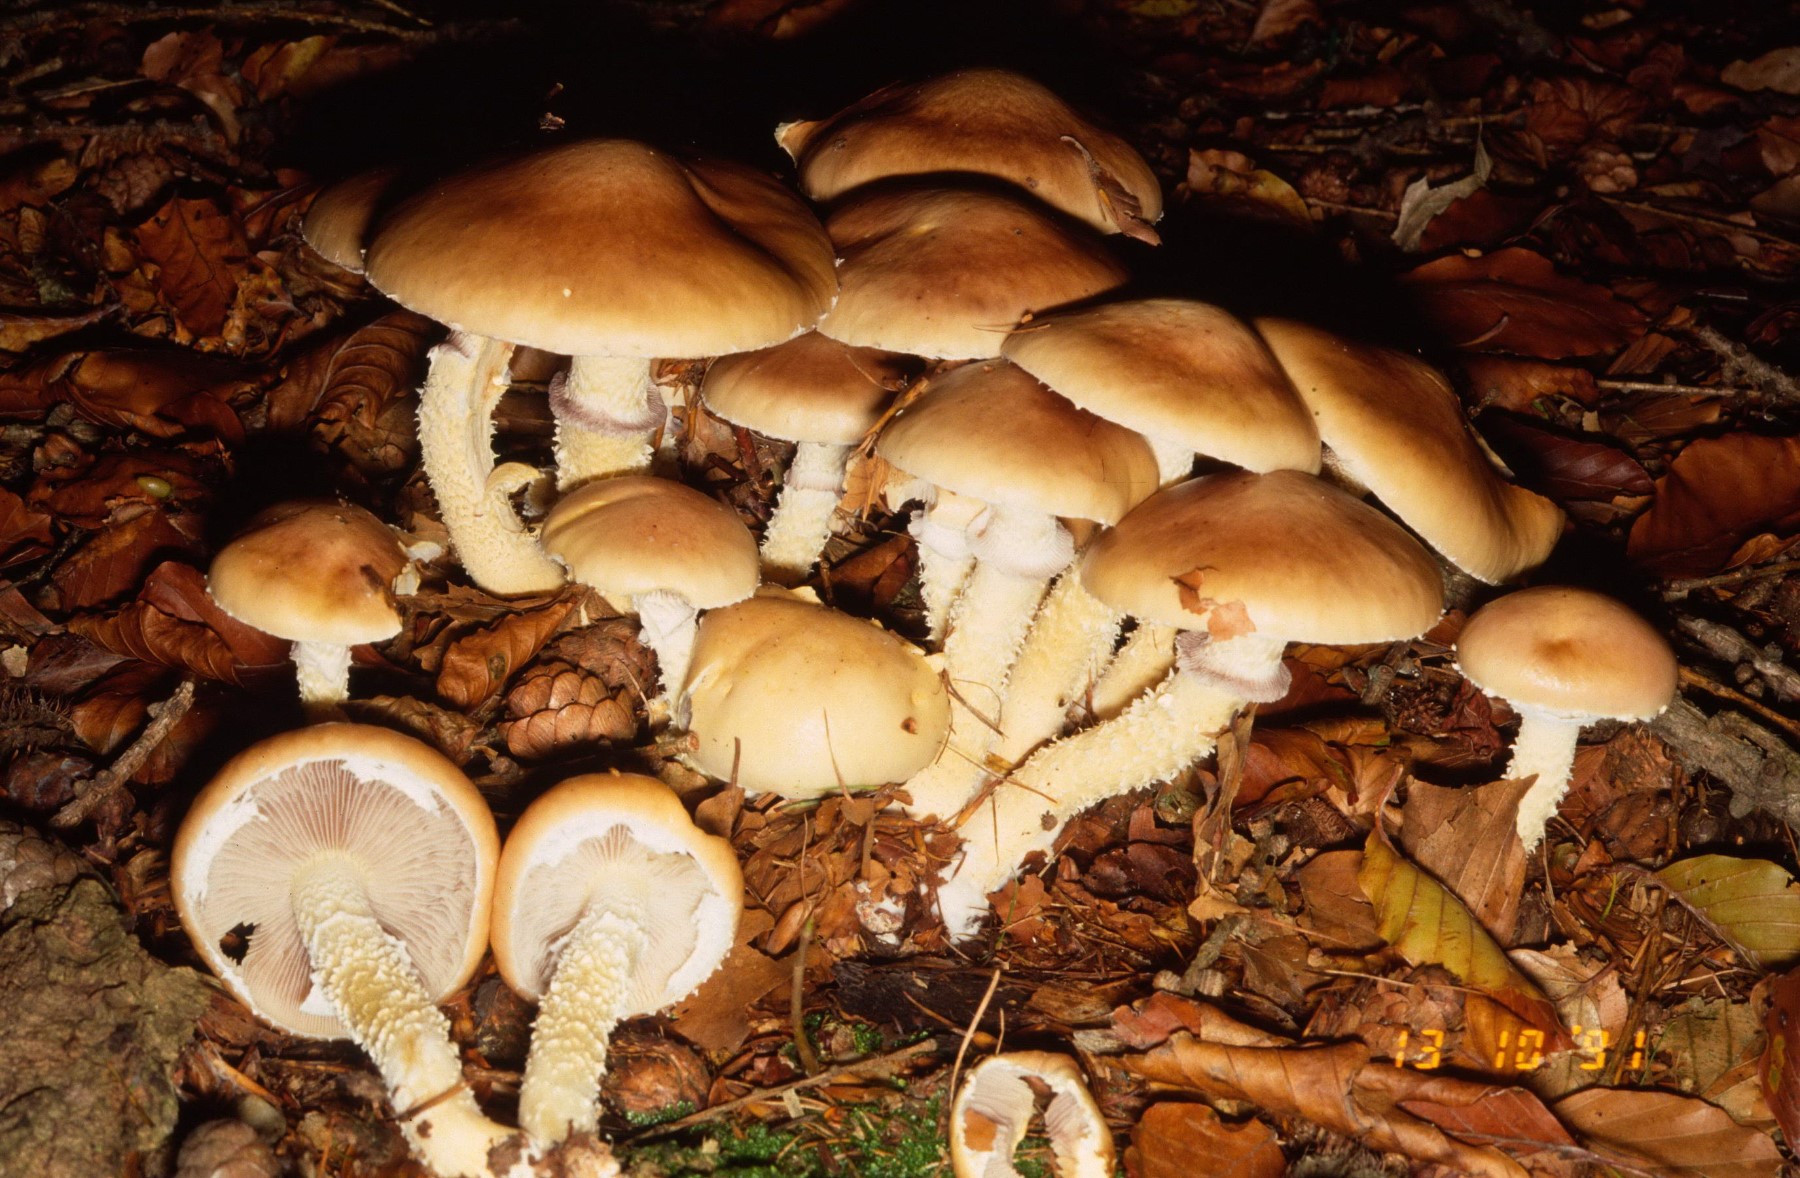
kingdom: Fungi
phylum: Basidiomycota
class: Agaricomycetes
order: Agaricales
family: Strophariaceae
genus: Stropharia
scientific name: Stropharia hornemannii
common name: nordisk bredblad
